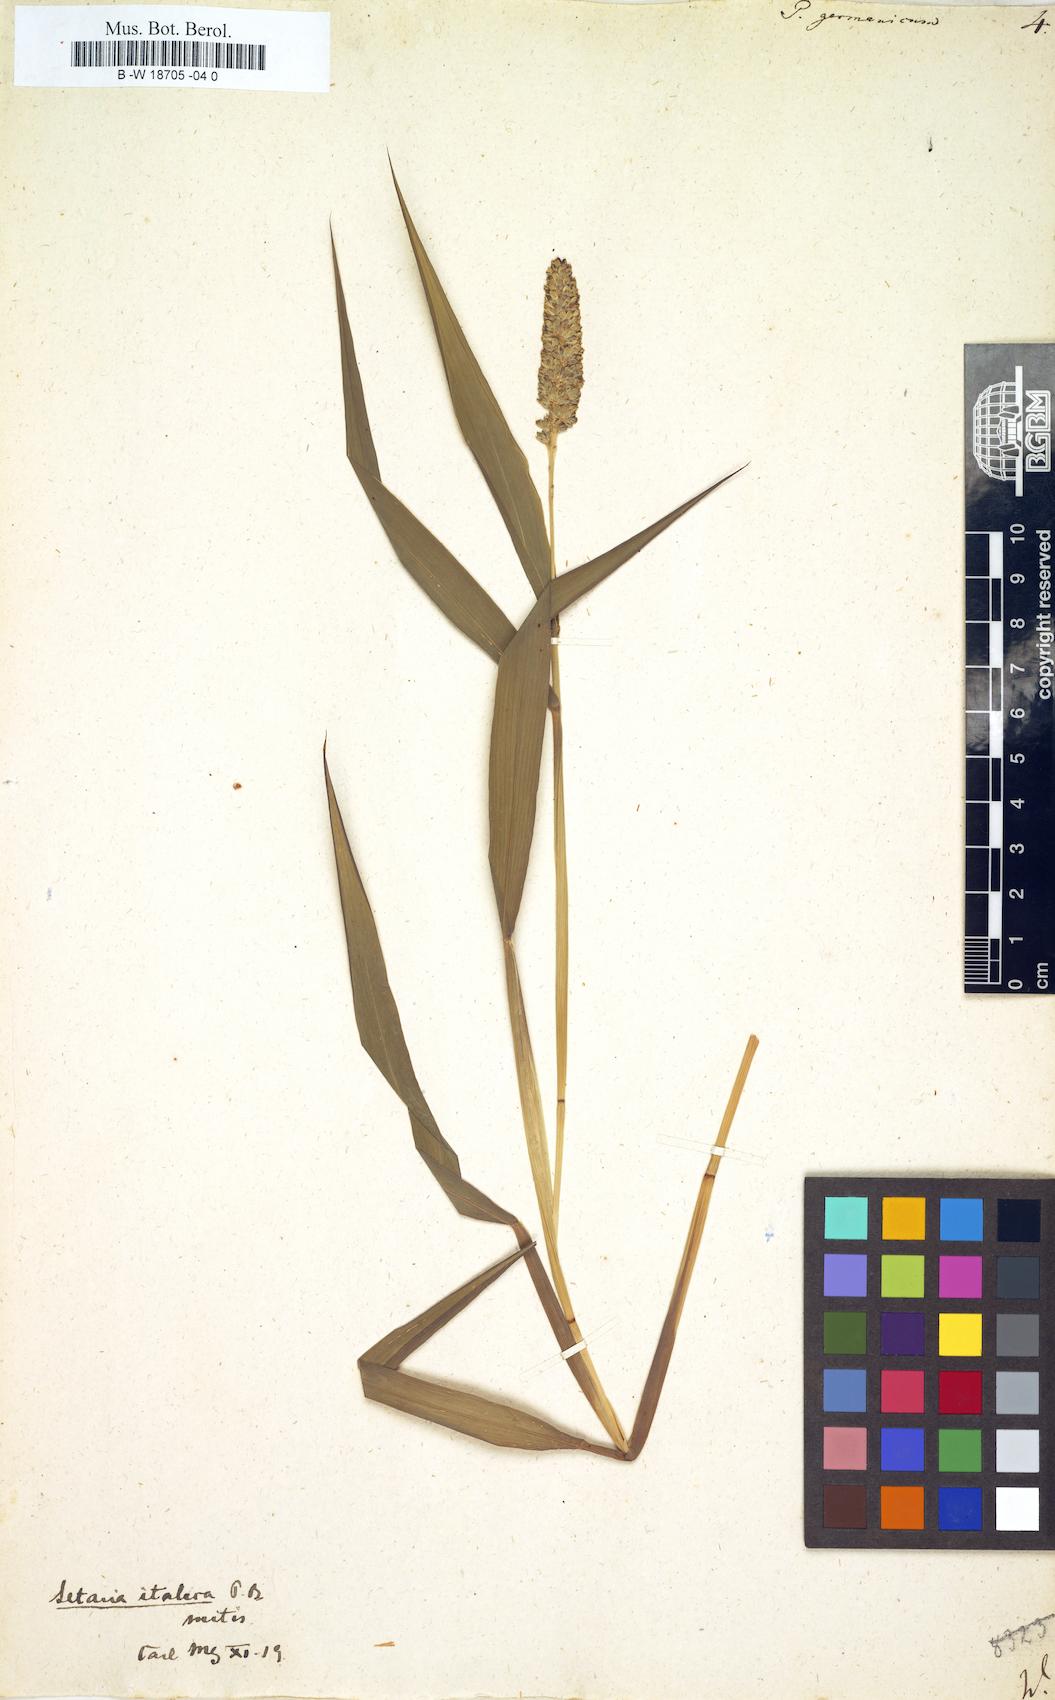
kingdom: Plantae
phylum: Tracheophyta
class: Liliopsida
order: Poales
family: Poaceae
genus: Setaria
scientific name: Setaria italica
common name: Foxtail bristle-grass
